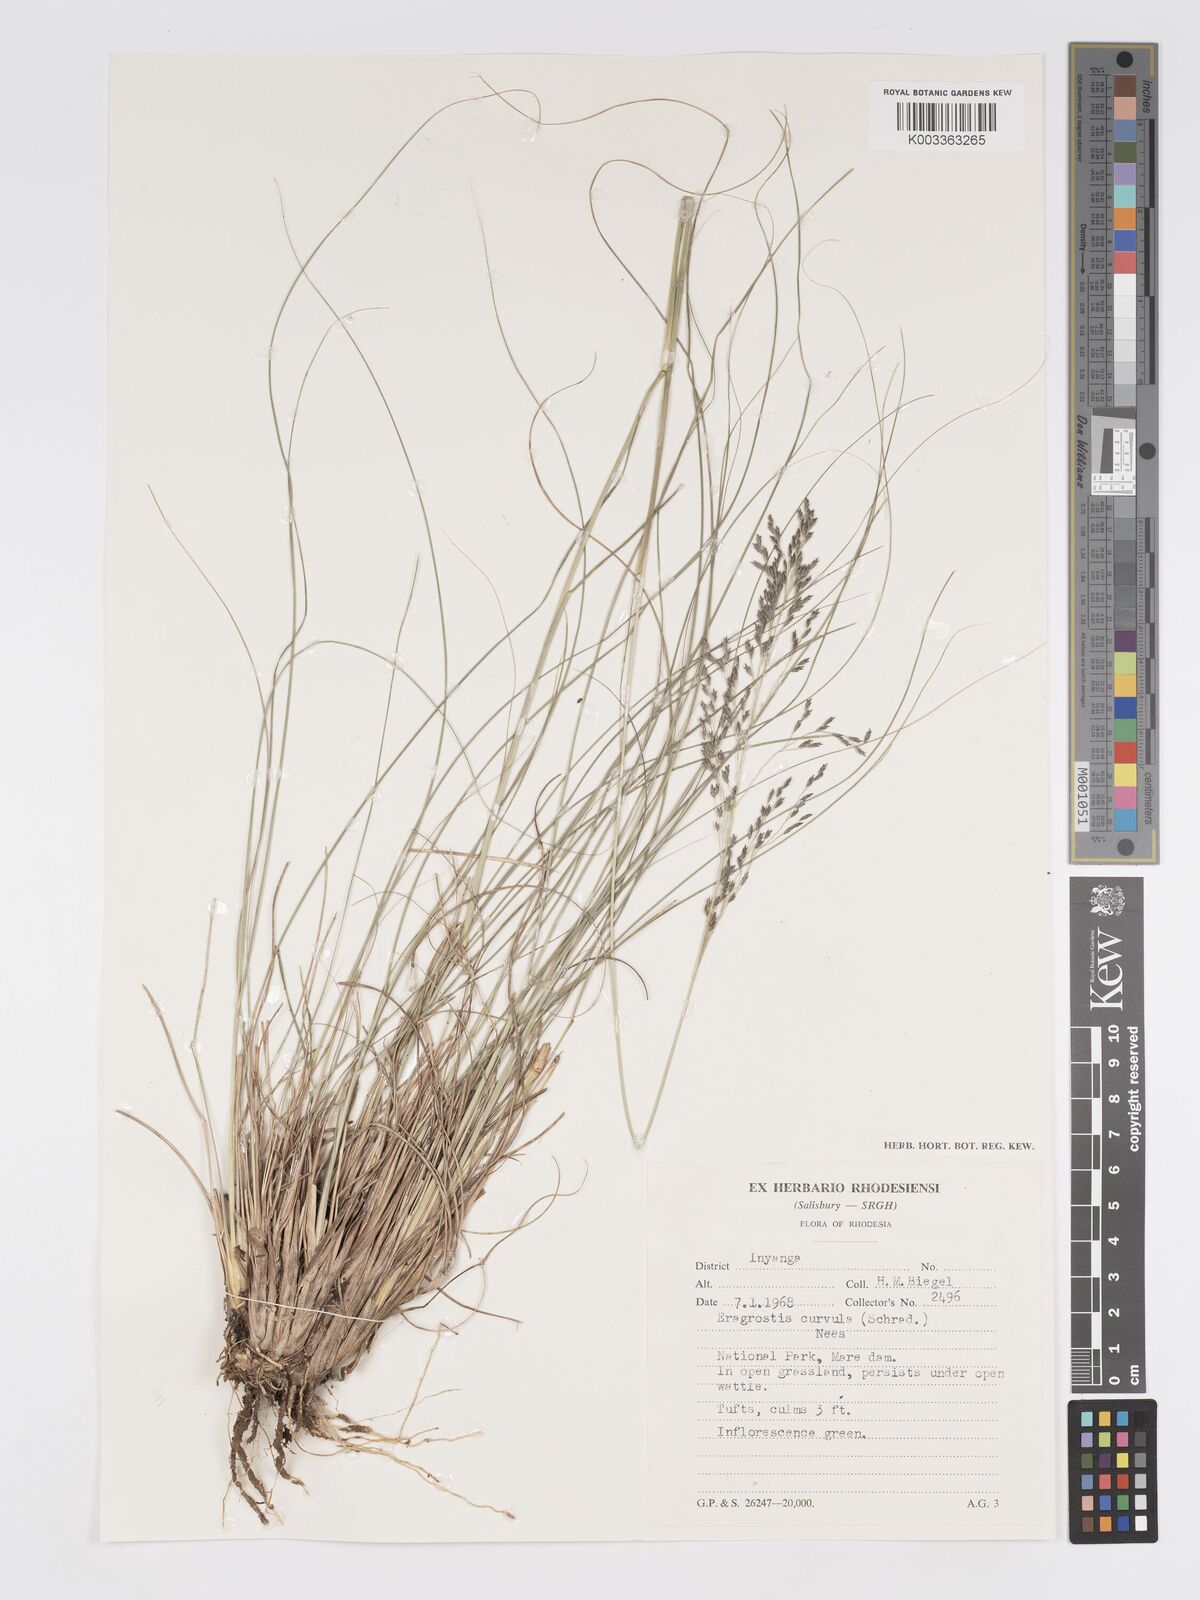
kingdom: Plantae
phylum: Tracheophyta
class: Liliopsida
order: Poales
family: Poaceae
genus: Eragrostis
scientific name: Eragrostis curvula
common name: African love-grass
